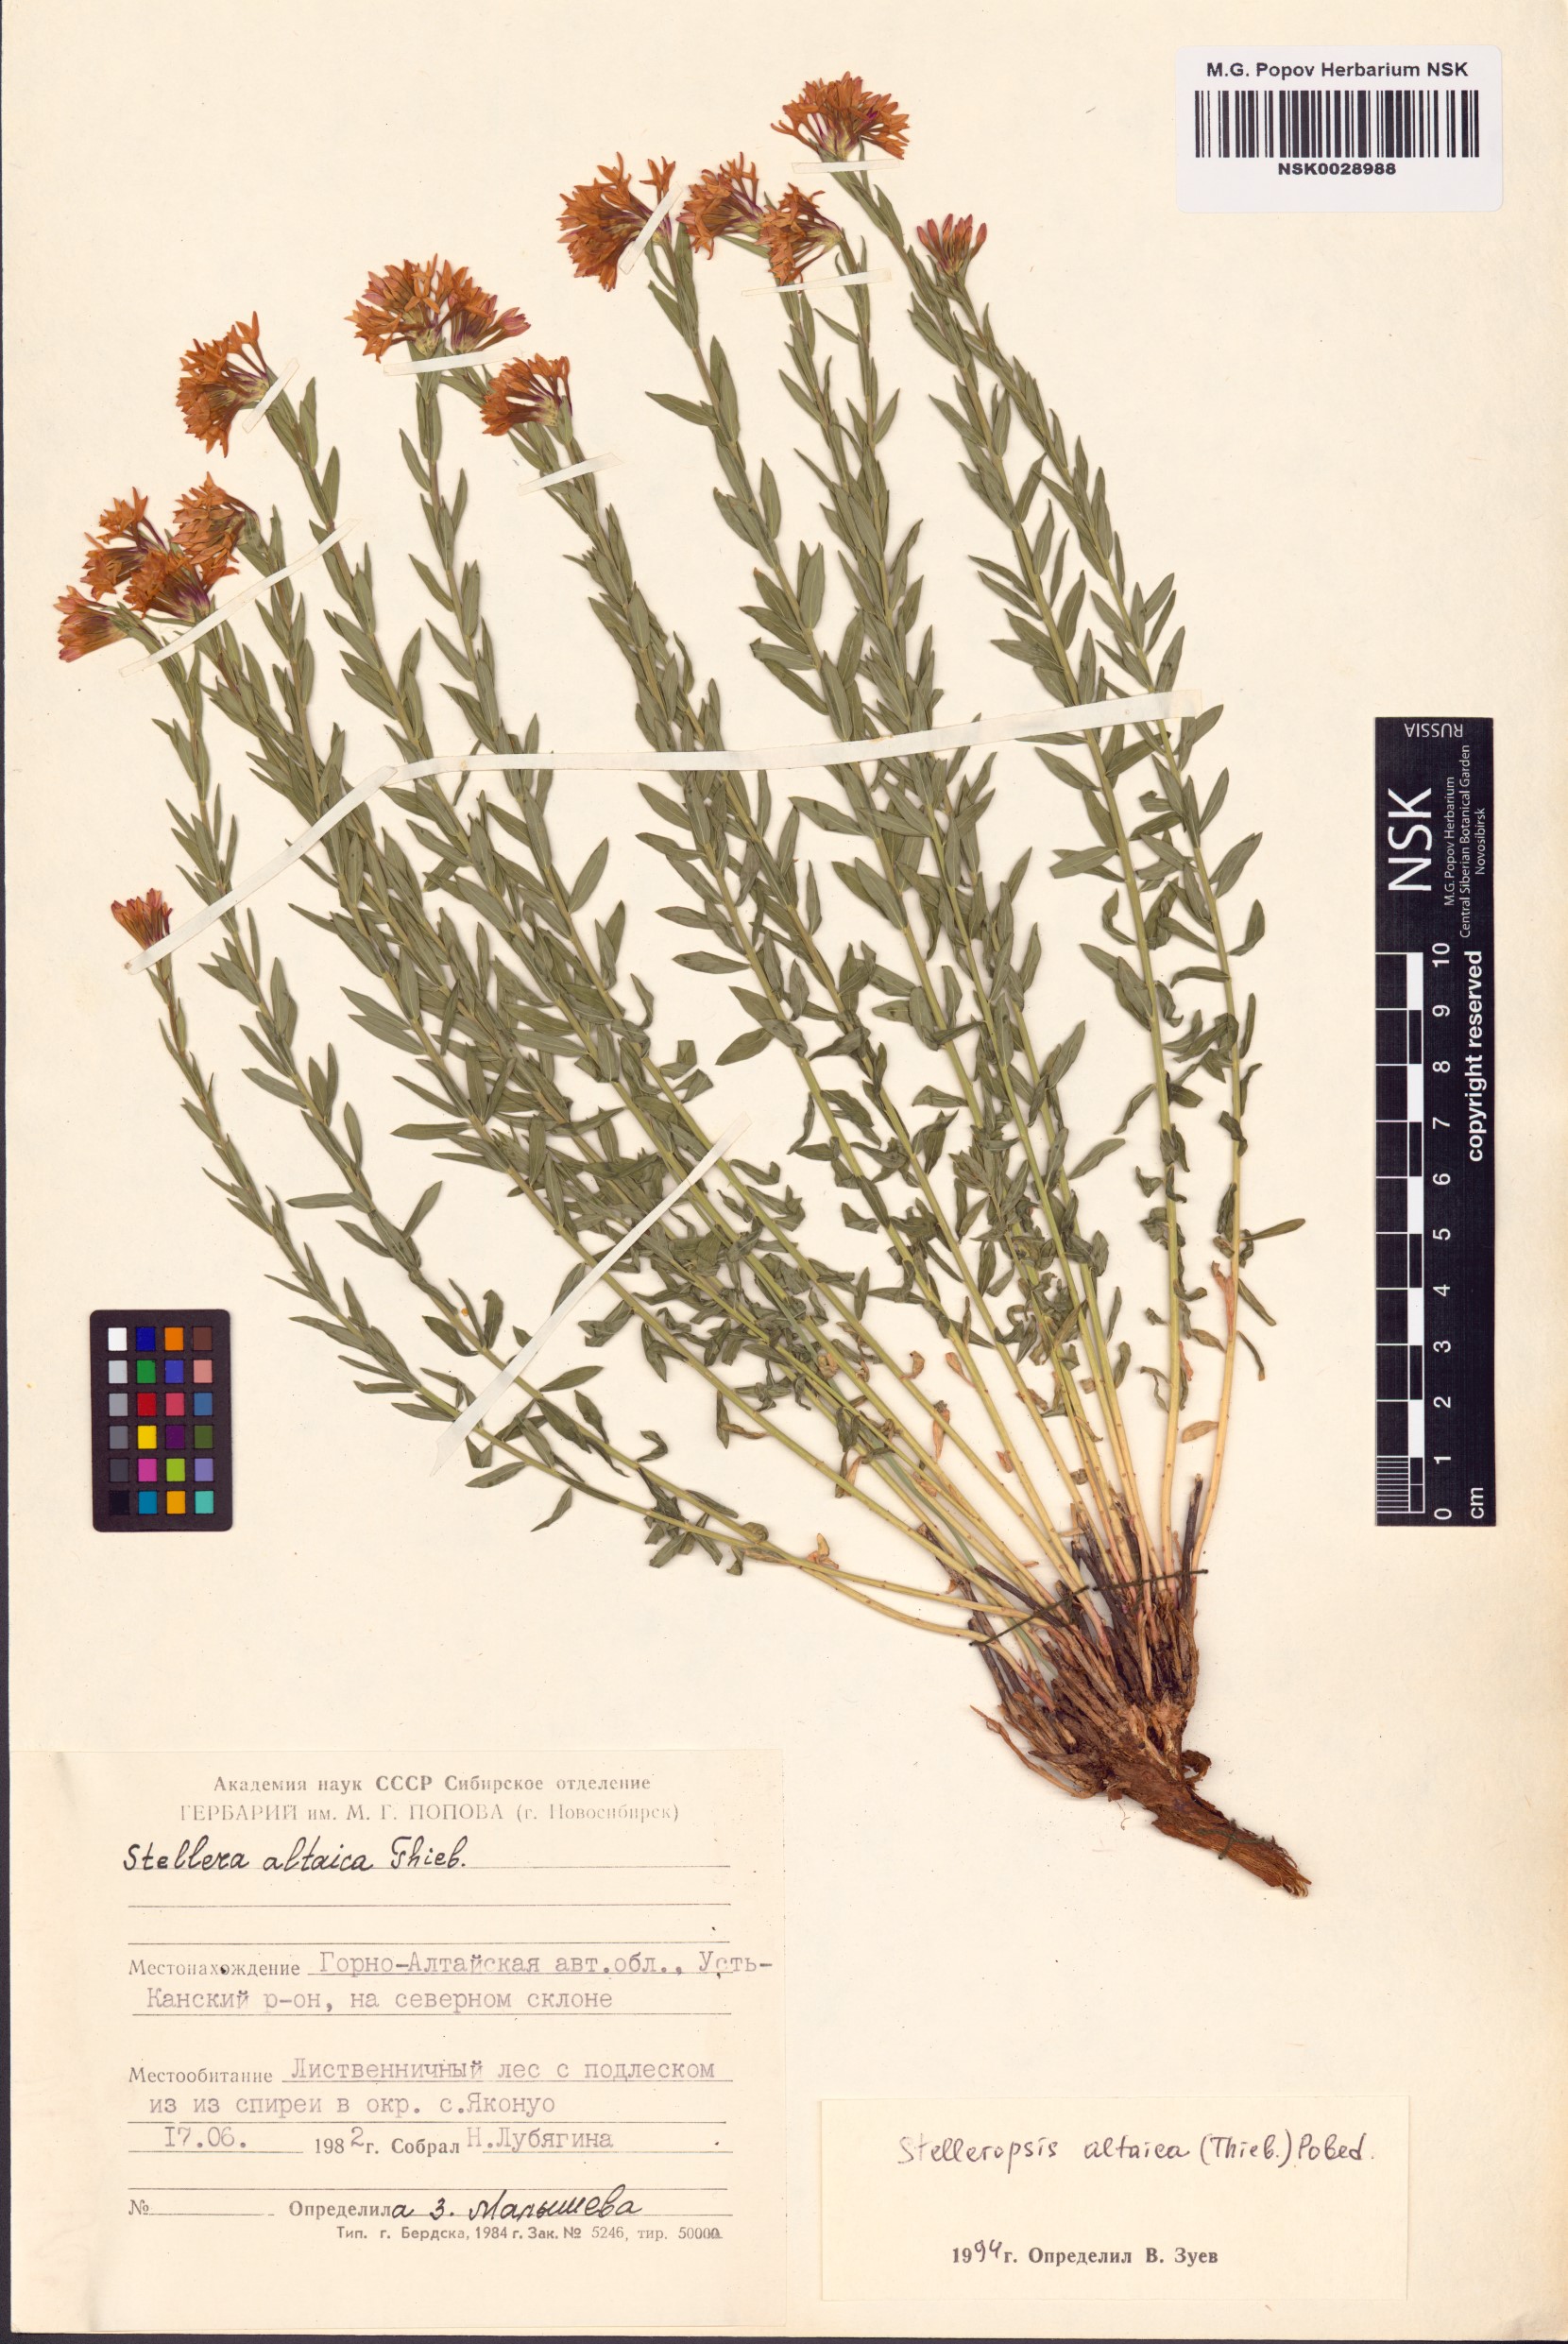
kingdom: Plantae
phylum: Tracheophyta
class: Magnoliopsida
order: Malvales
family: Thymelaeaceae
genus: Diarthron
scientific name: Diarthron altaicum
